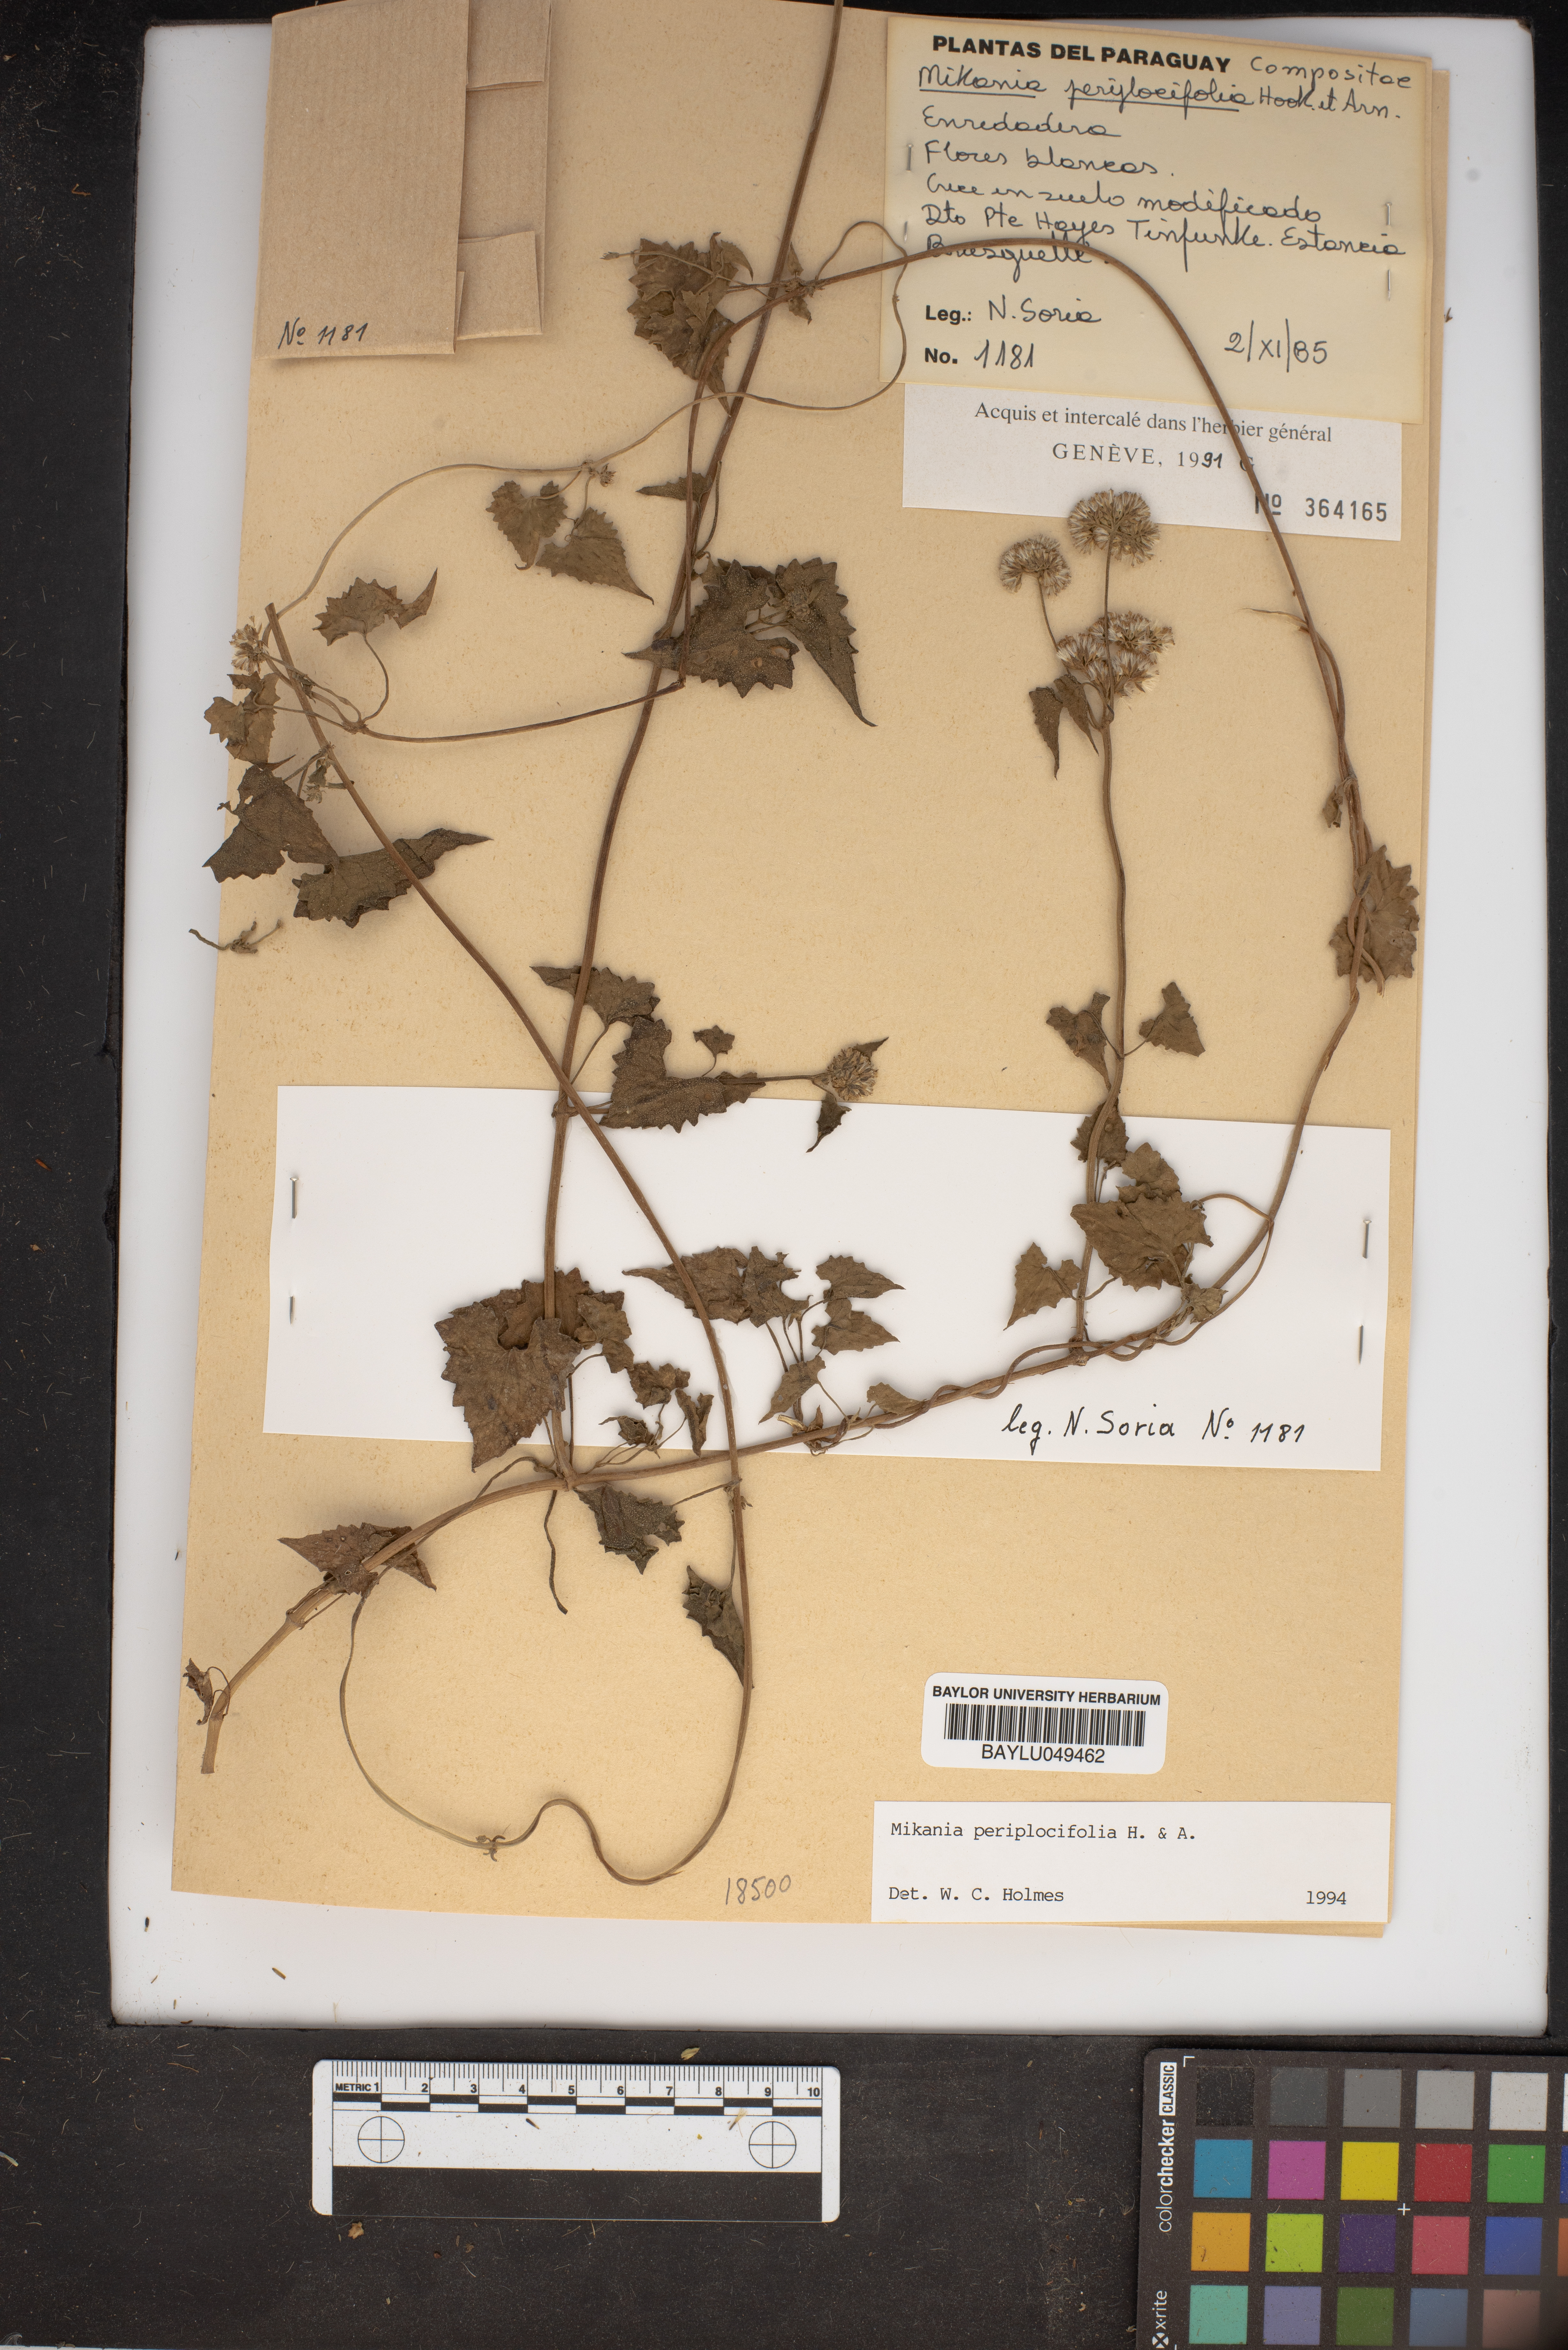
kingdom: Plantae
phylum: Tracheophyta
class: Magnoliopsida
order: Asterales
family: Asteraceae
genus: Mikania
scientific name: Mikania periplocifolia
